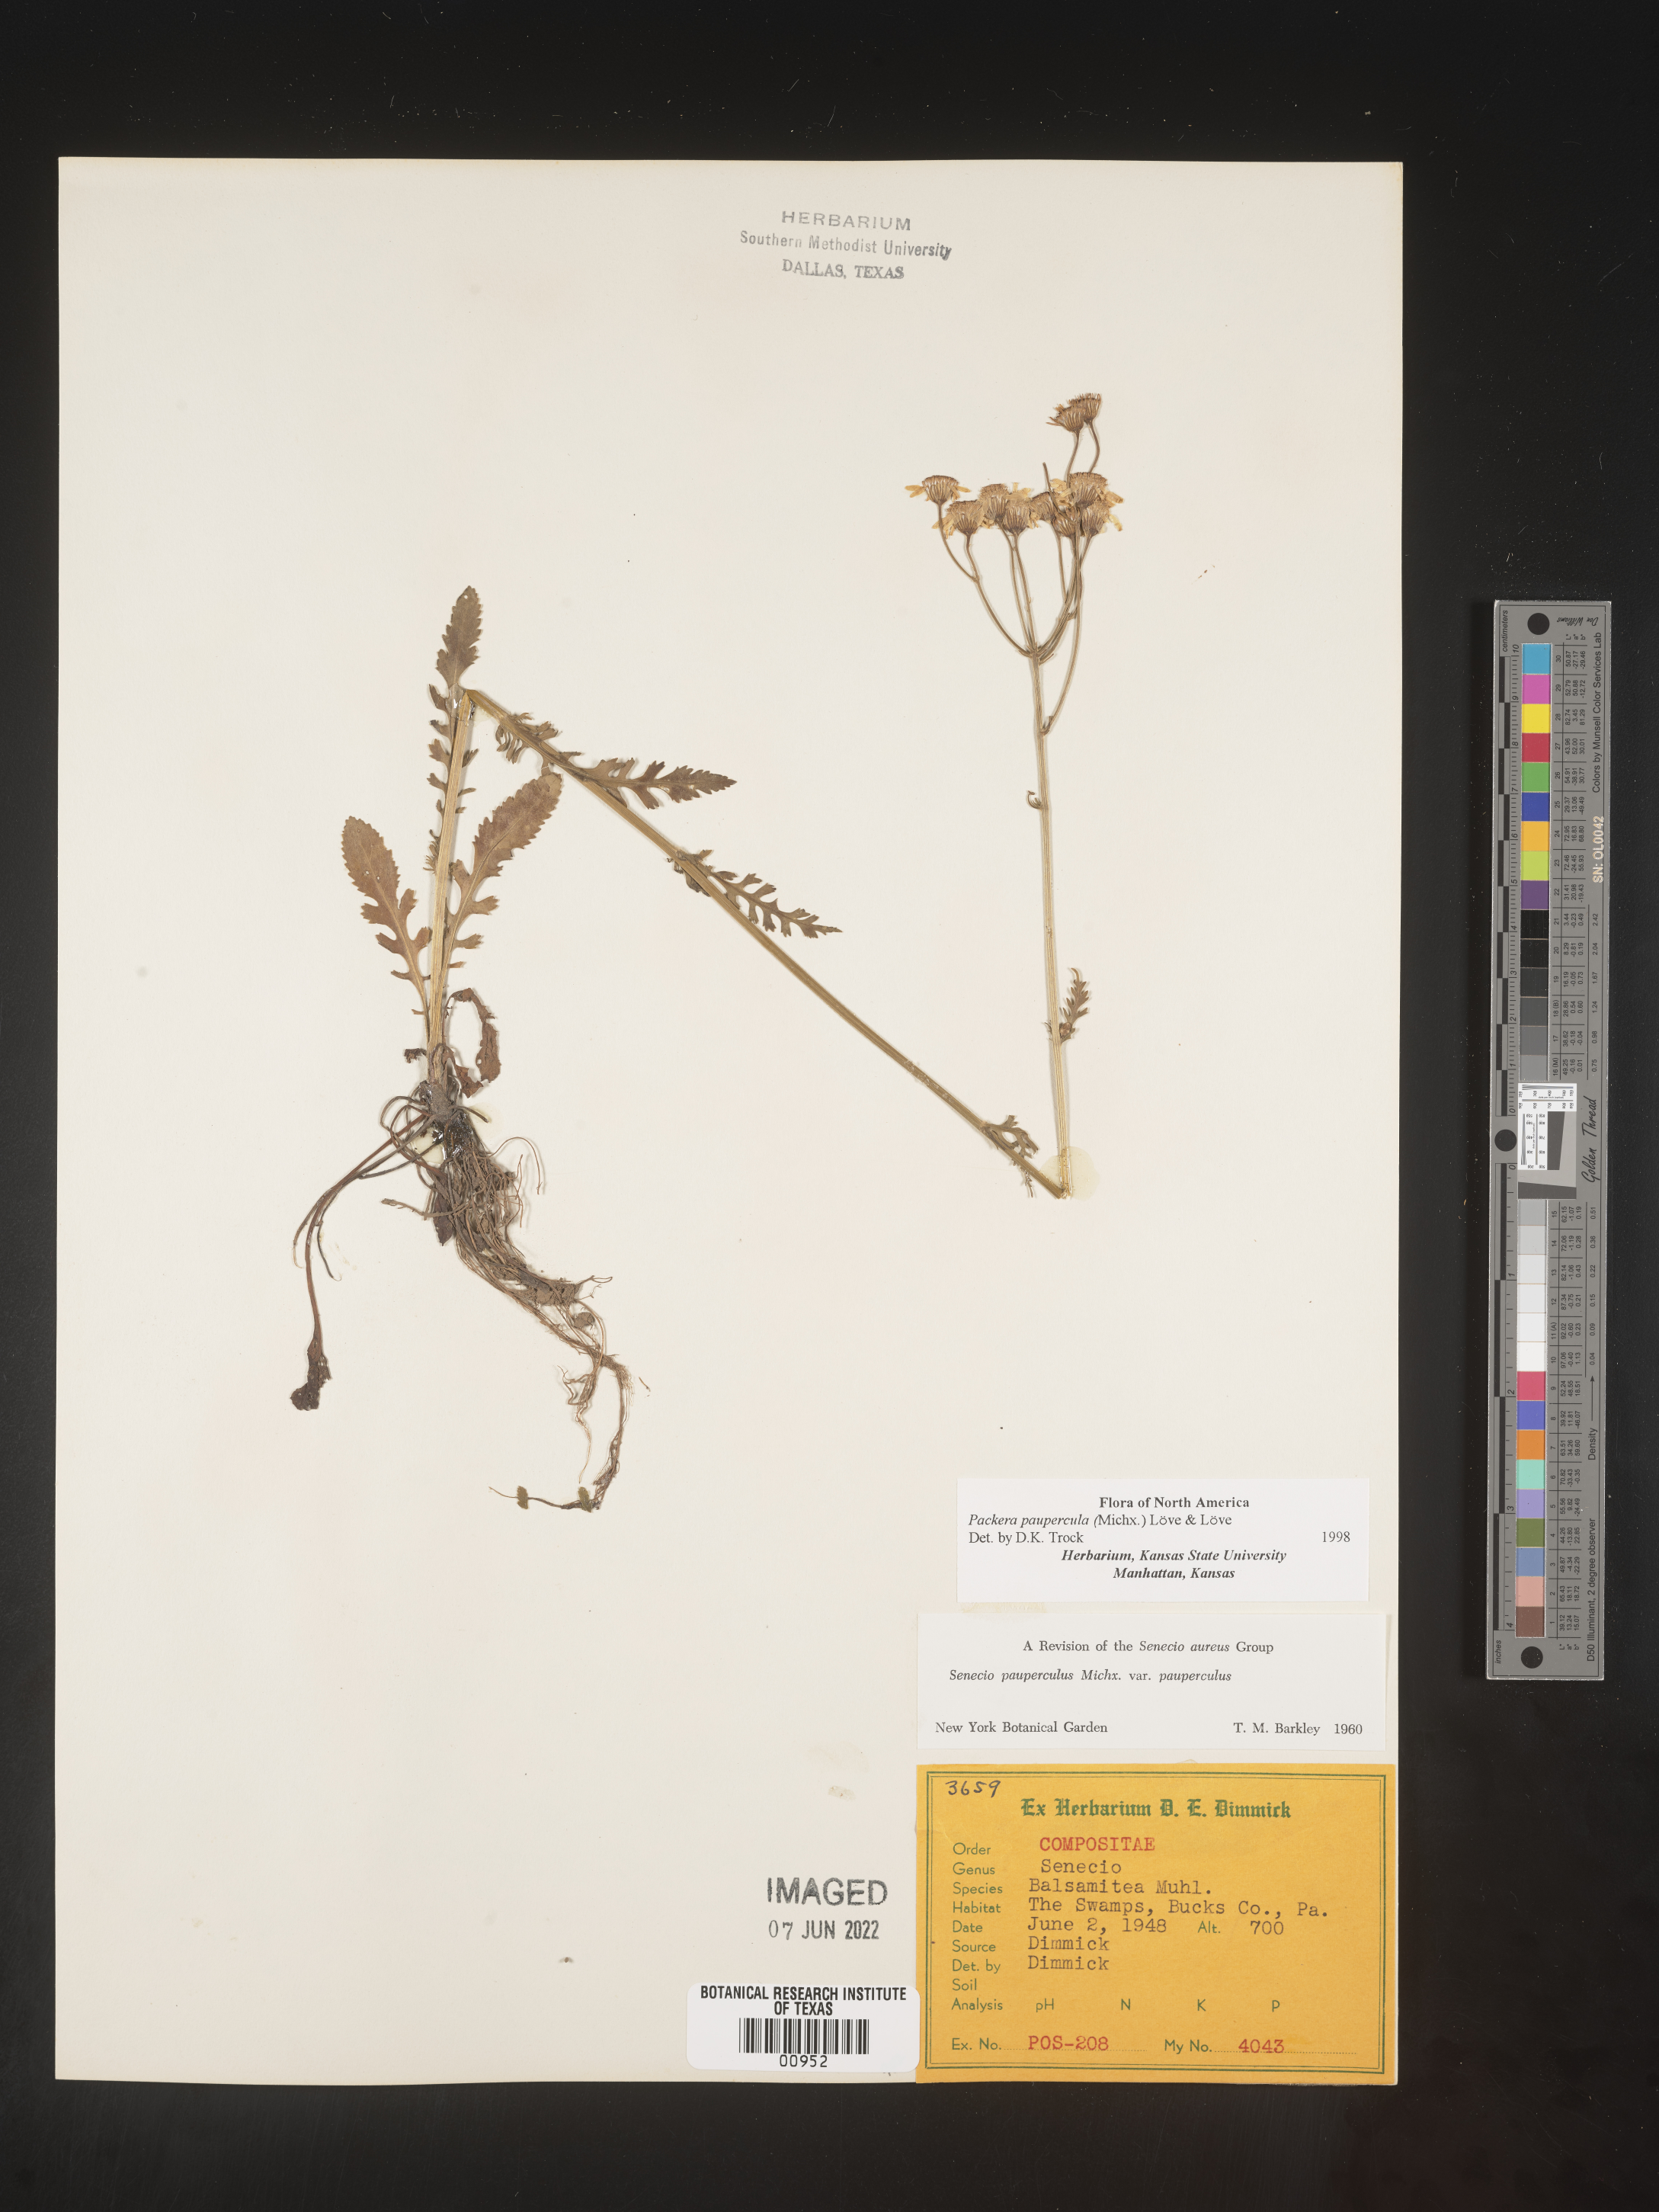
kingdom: Plantae
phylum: Tracheophyta
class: Magnoliopsida
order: Asterales
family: Asteraceae
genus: Packera
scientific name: Packera paupercula
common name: Balsam groundsel
